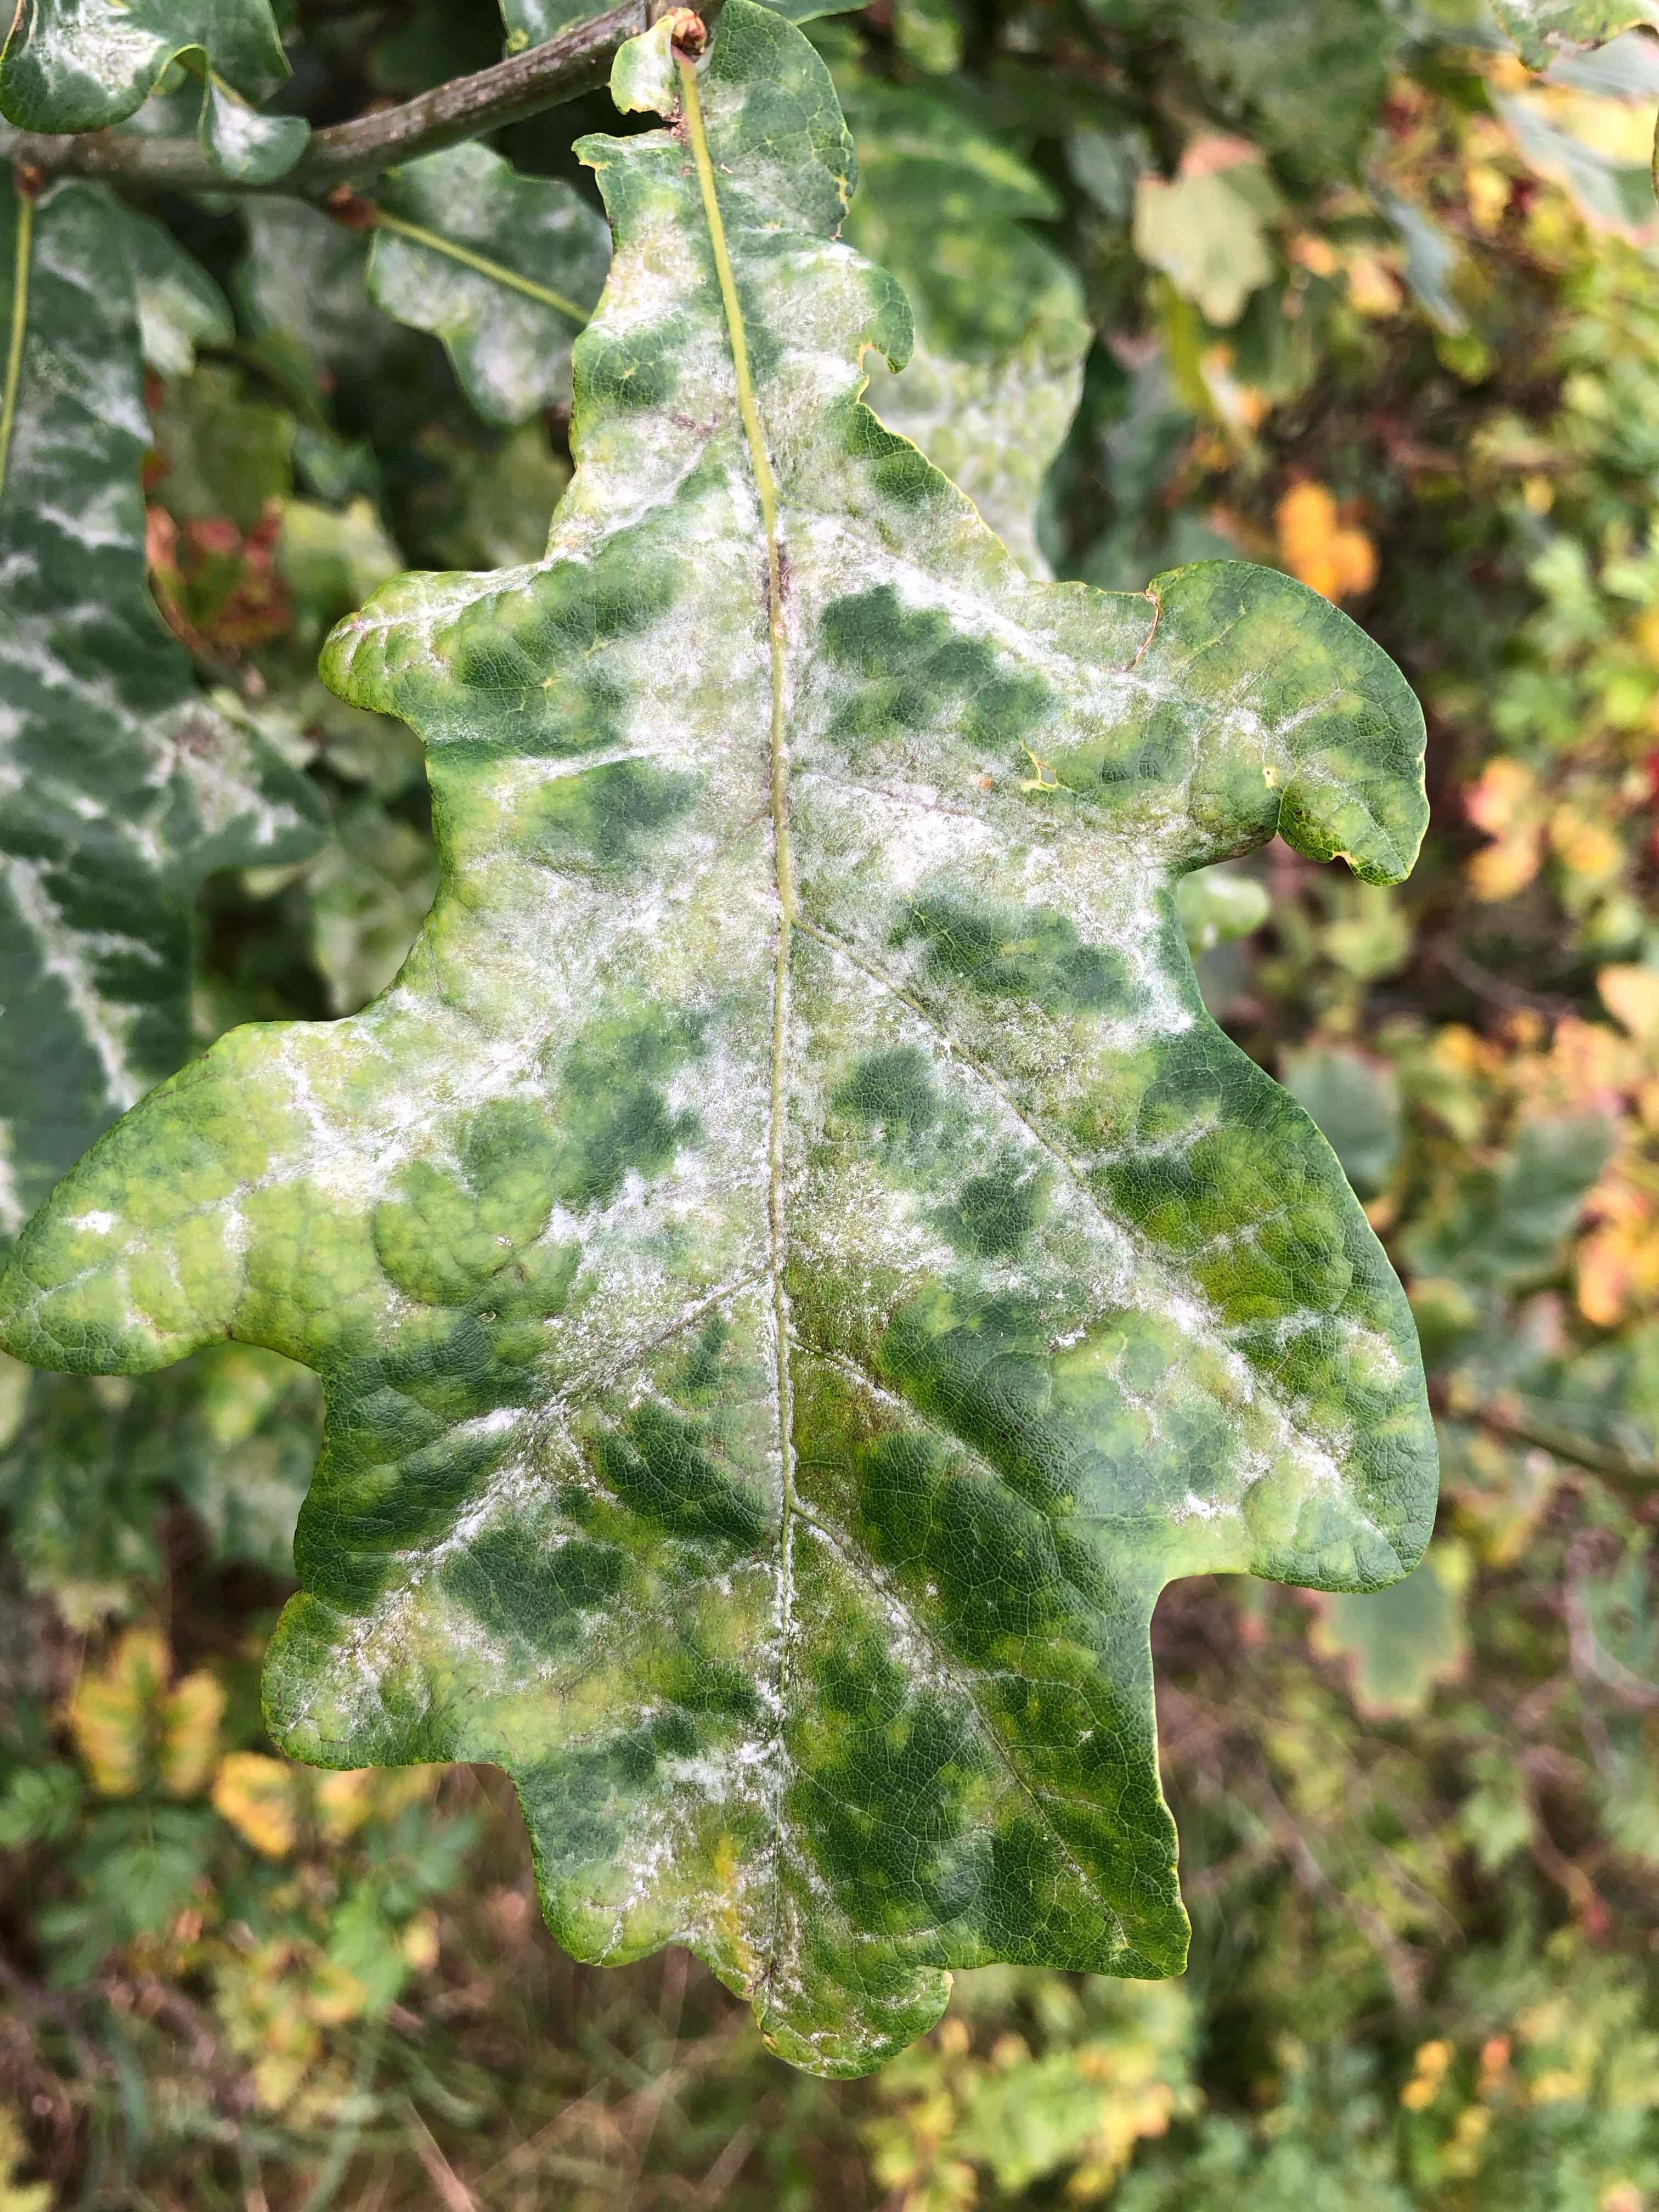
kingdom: Fungi
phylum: Ascomycota
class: Leotiomycetes
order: Helotiales
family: Erysiphaceae
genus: Erysiphe
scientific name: Erysiphe alphitoides
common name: ege-meldug
